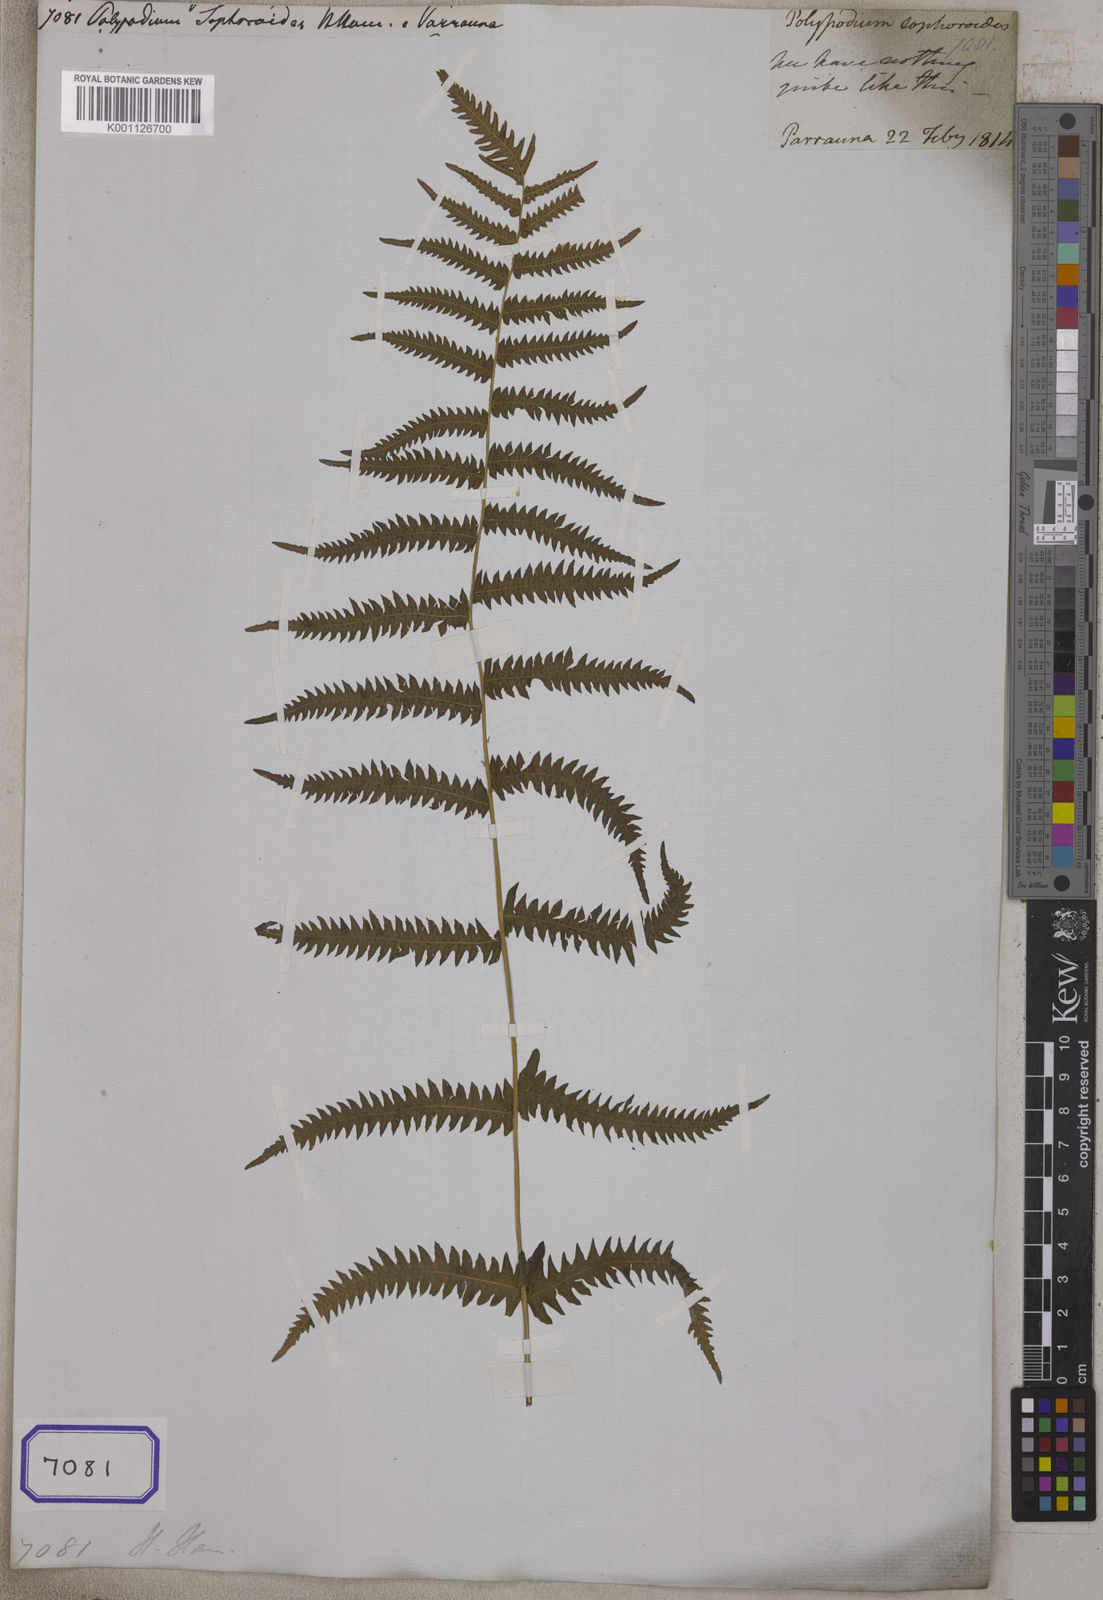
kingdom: Plantae
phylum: Tracheophyta
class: Polypodiopsida
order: Polypodiales
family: Thelypteridaceae
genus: Christella
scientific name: Christella acuminata
